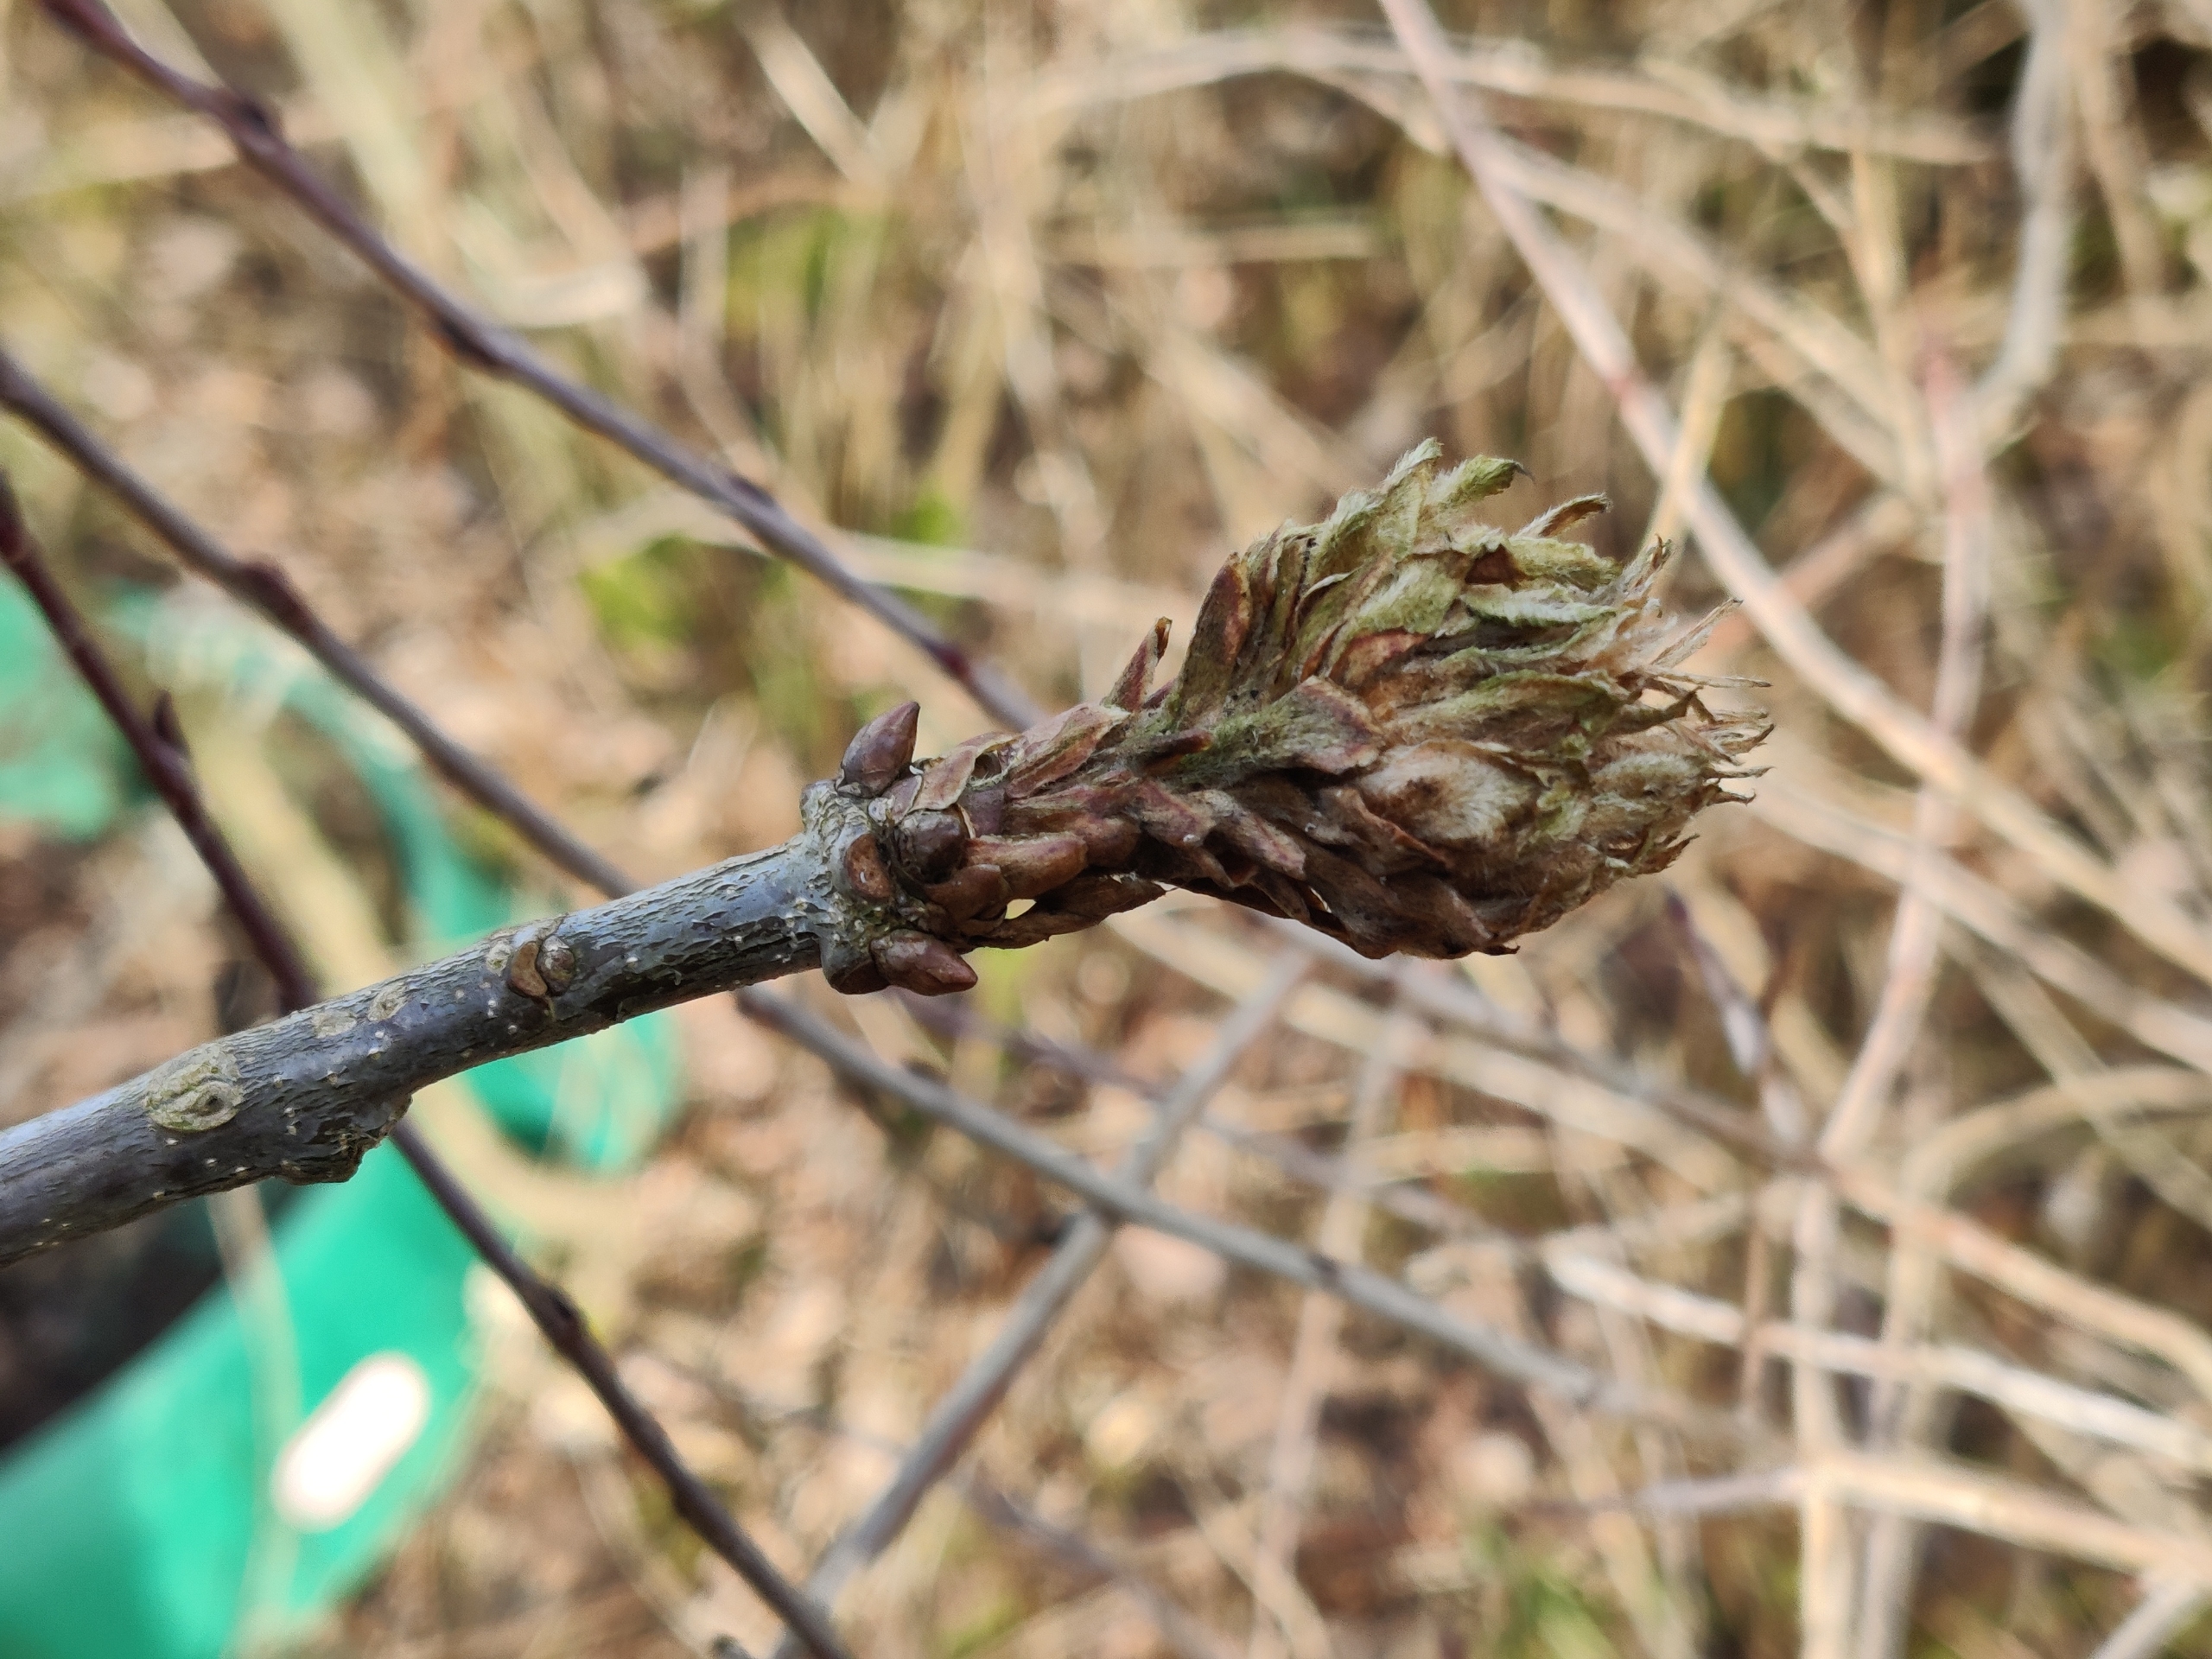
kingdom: Animalia
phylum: Arthropoda
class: Insecta
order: Hymenoptera
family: Cynipidae
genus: Andricus
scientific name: Andricus foecundatrix
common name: Artiskokgalhveps
